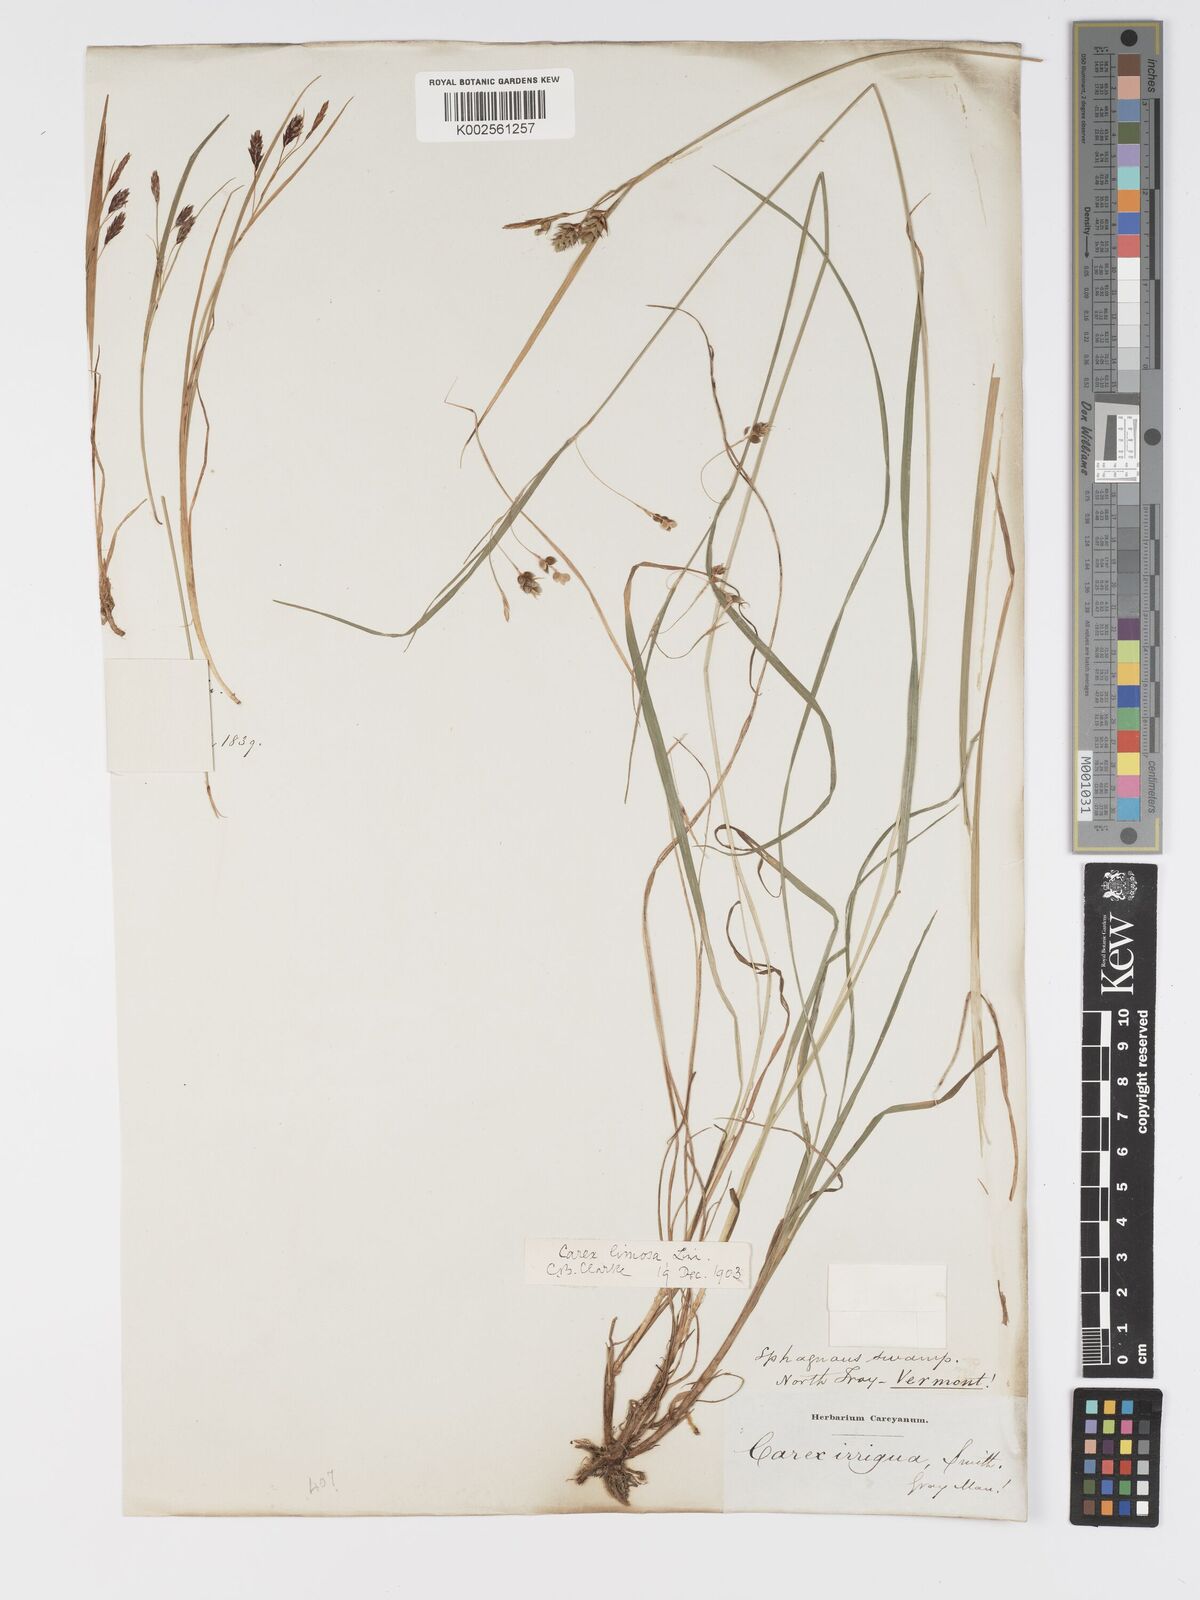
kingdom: Plantae
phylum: Tracheophyta
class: Liliopsida
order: Poales
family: Cyperaceae
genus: Carex
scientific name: Carex limosa
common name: Bog sedge
